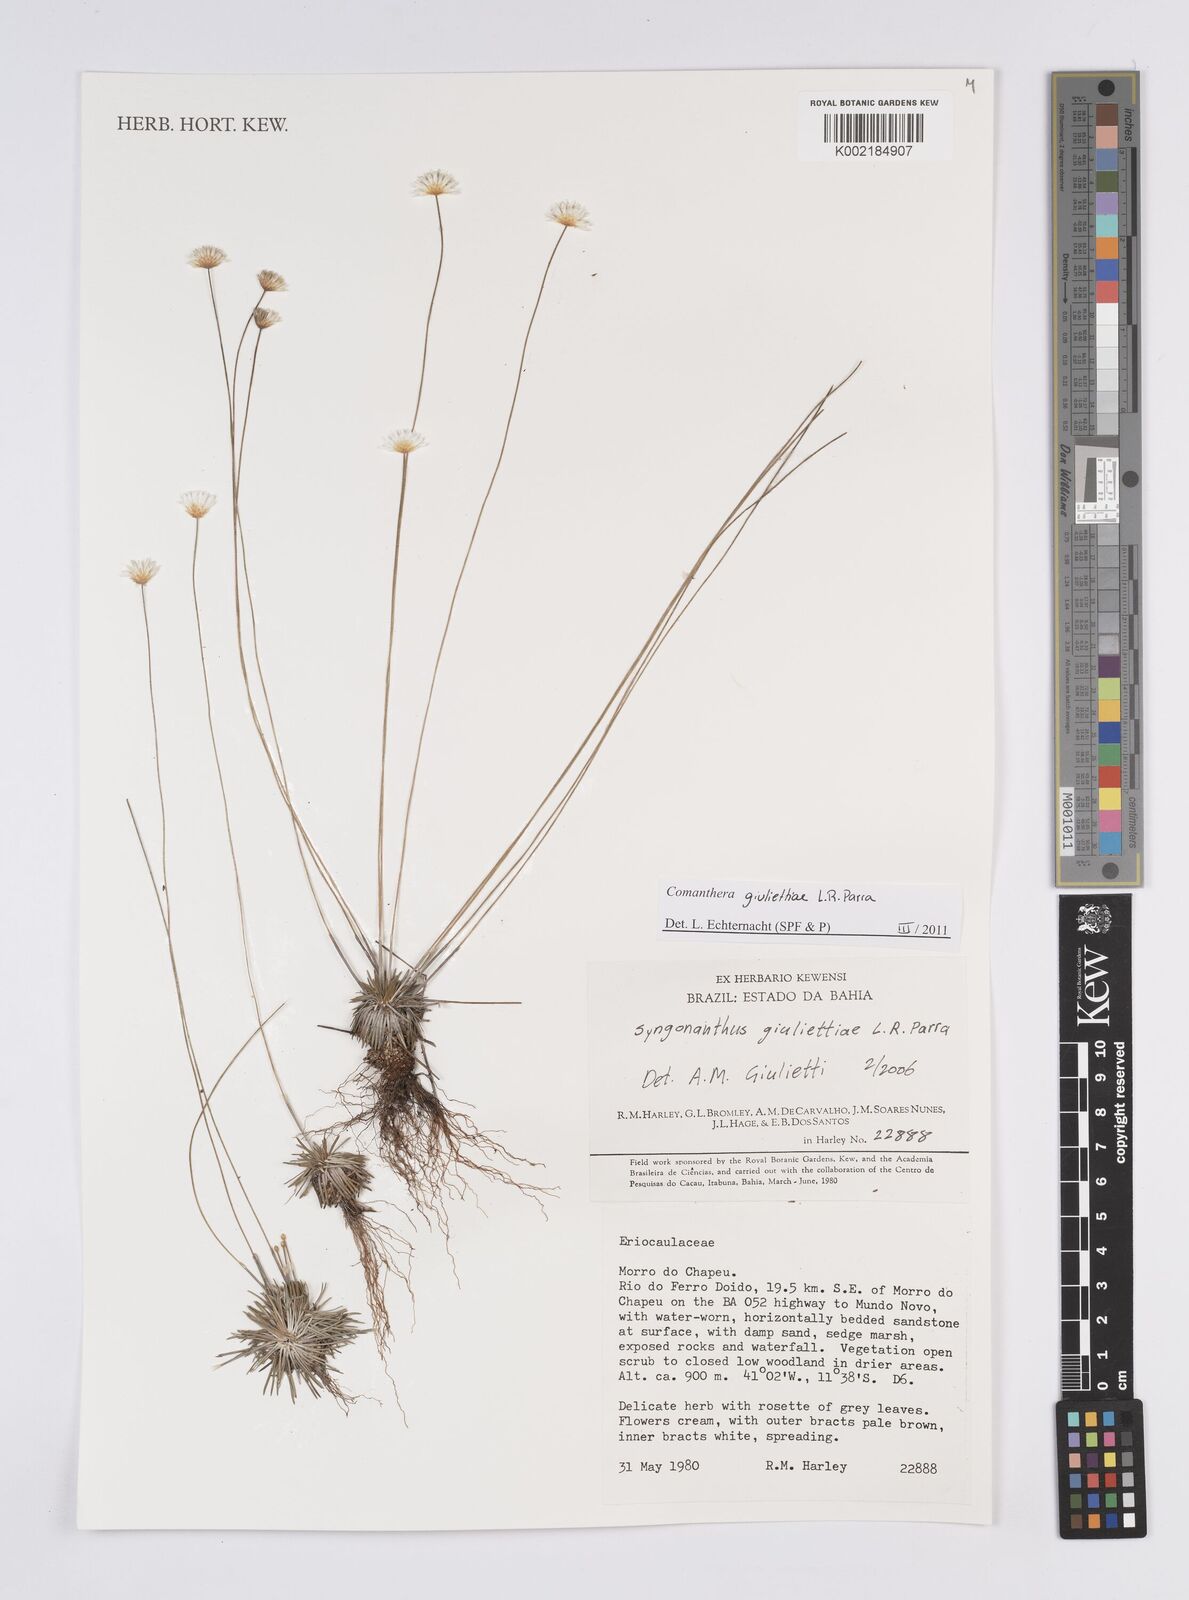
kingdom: Plantae
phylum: Tracheophyta
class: Liliopsida
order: Poales
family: Eriocaulaceae
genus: Comanthera
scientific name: Comanthera giuliettiae
